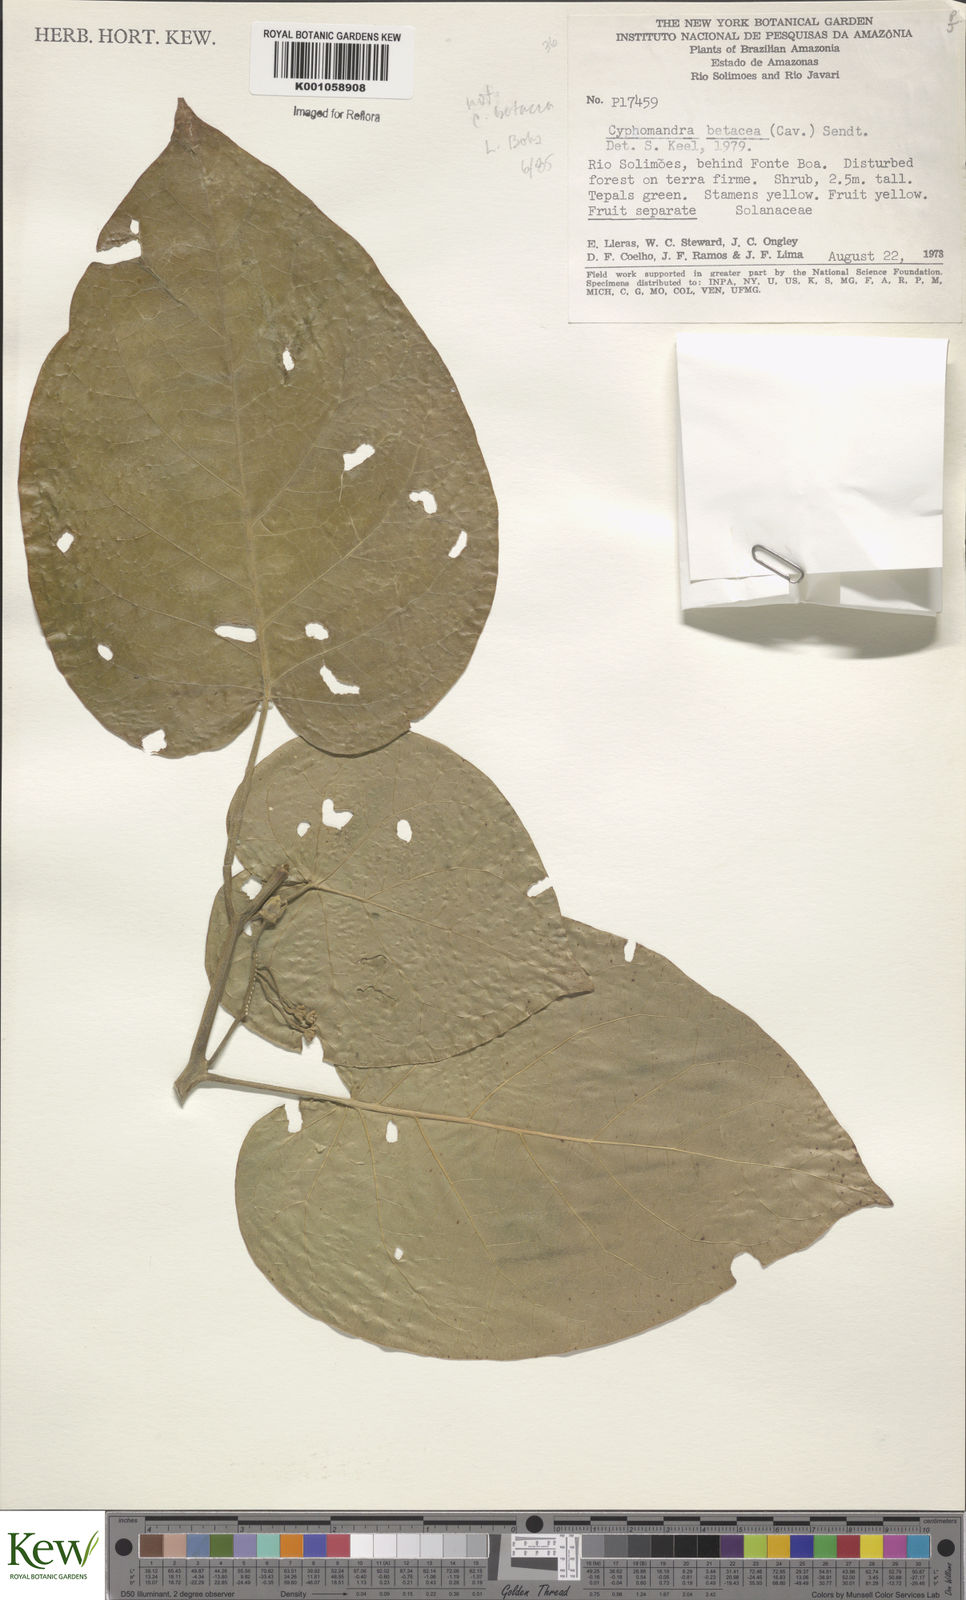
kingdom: Plantae
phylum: Tracheophyta
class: Magnoliopsida
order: Solanales
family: Solanaceae
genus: Solanum
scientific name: Solanum obliquum
